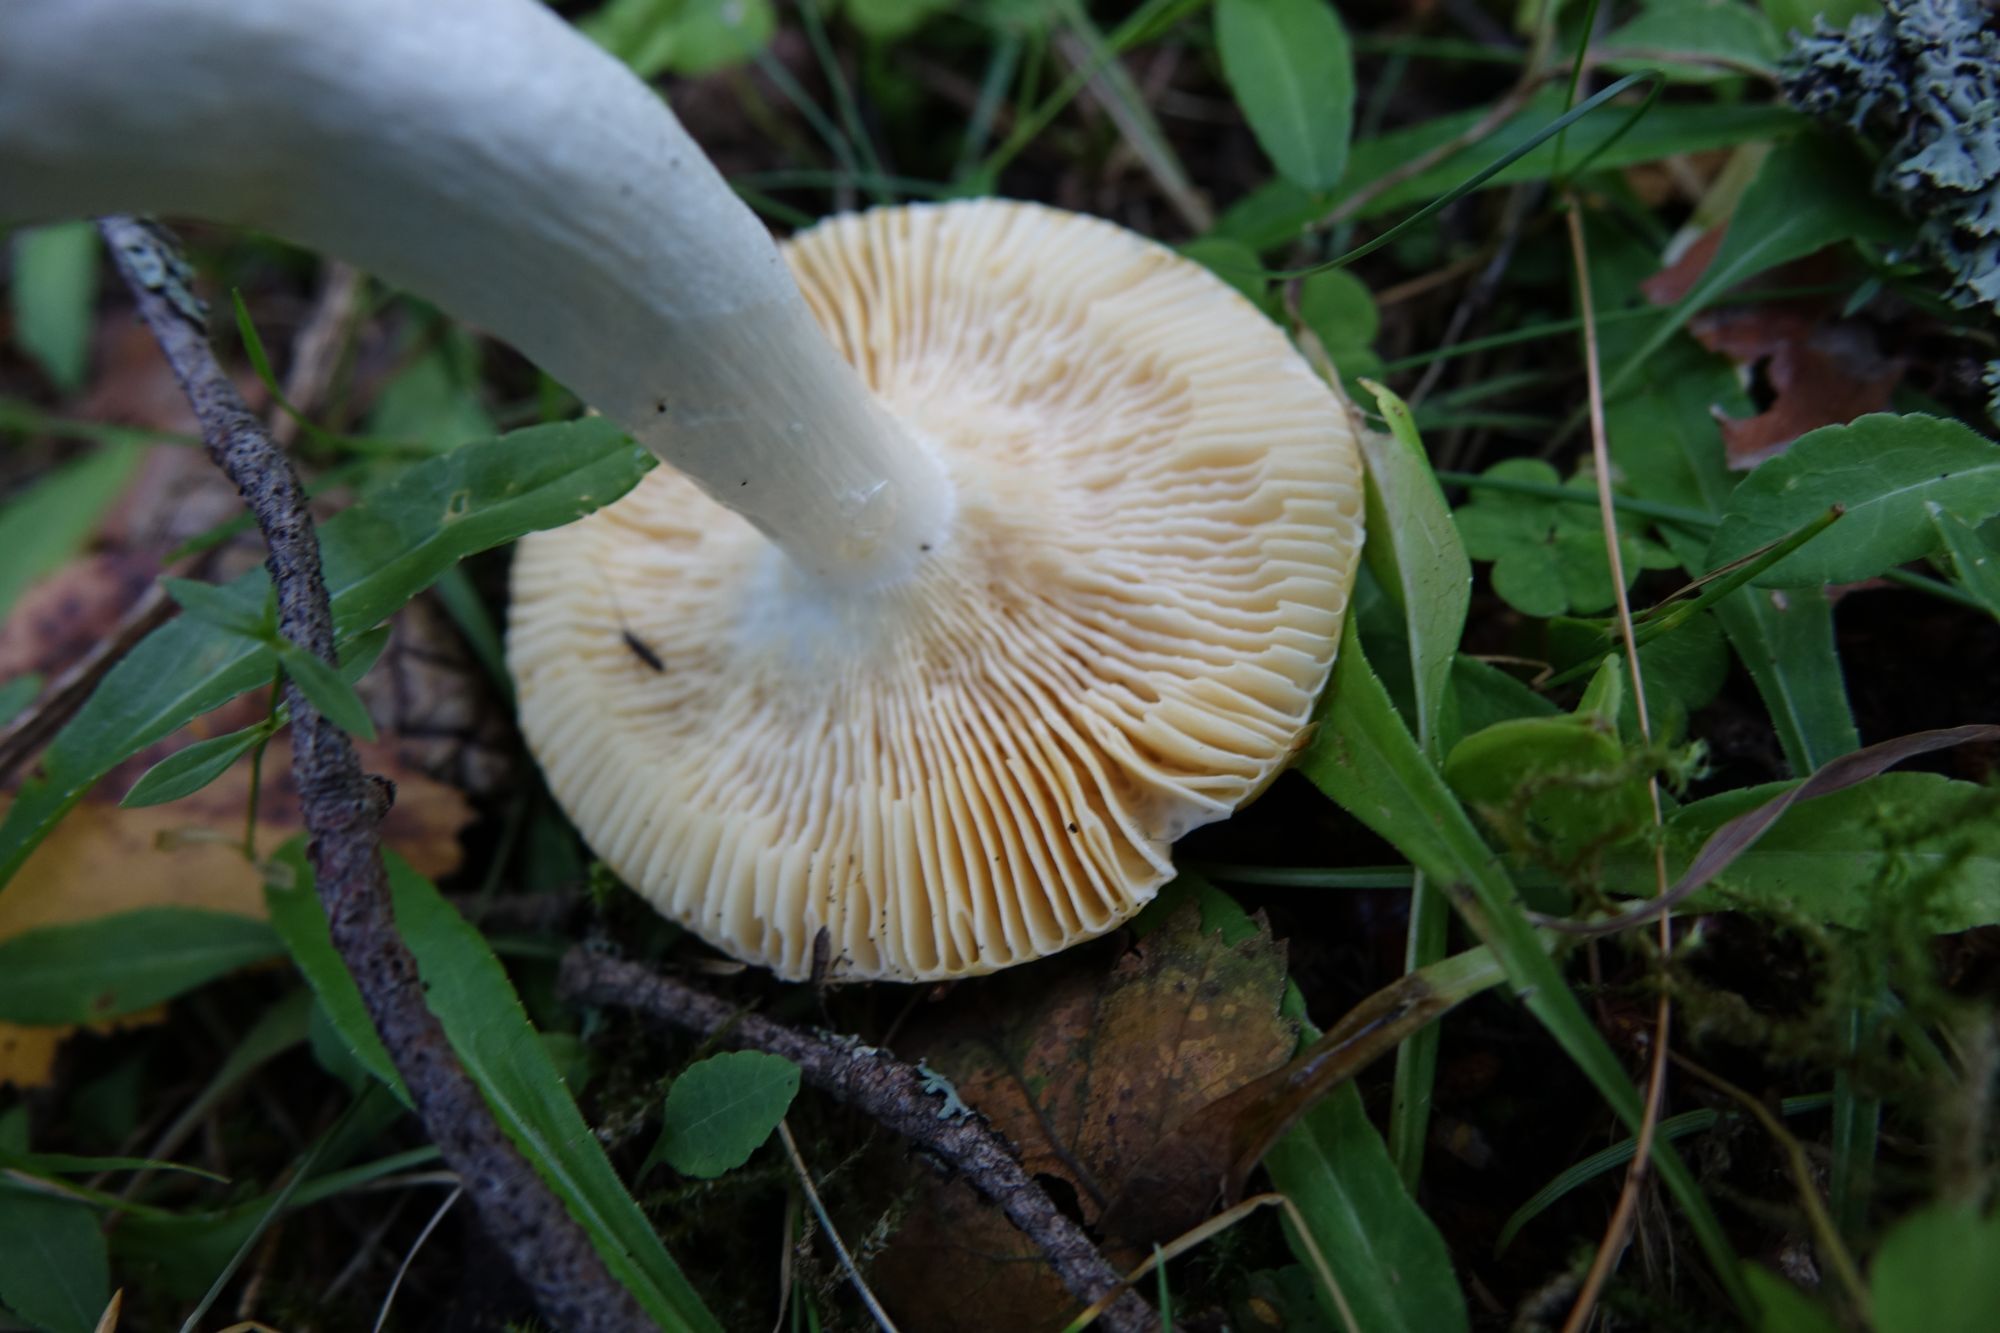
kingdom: Fungi
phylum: Basidiomycota
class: Agaricomycetes
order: Russulales
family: Russulaceae
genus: Russula
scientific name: Russula risigallina
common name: Golden brittlegill
